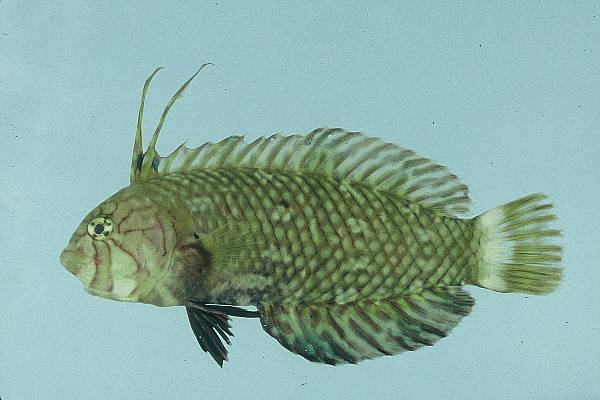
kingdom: Animalia
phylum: Chordata
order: Perciformes
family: Labridae
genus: Novaculichthys
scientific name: Novaculichthys taeniourus
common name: Rockmover wrasse
